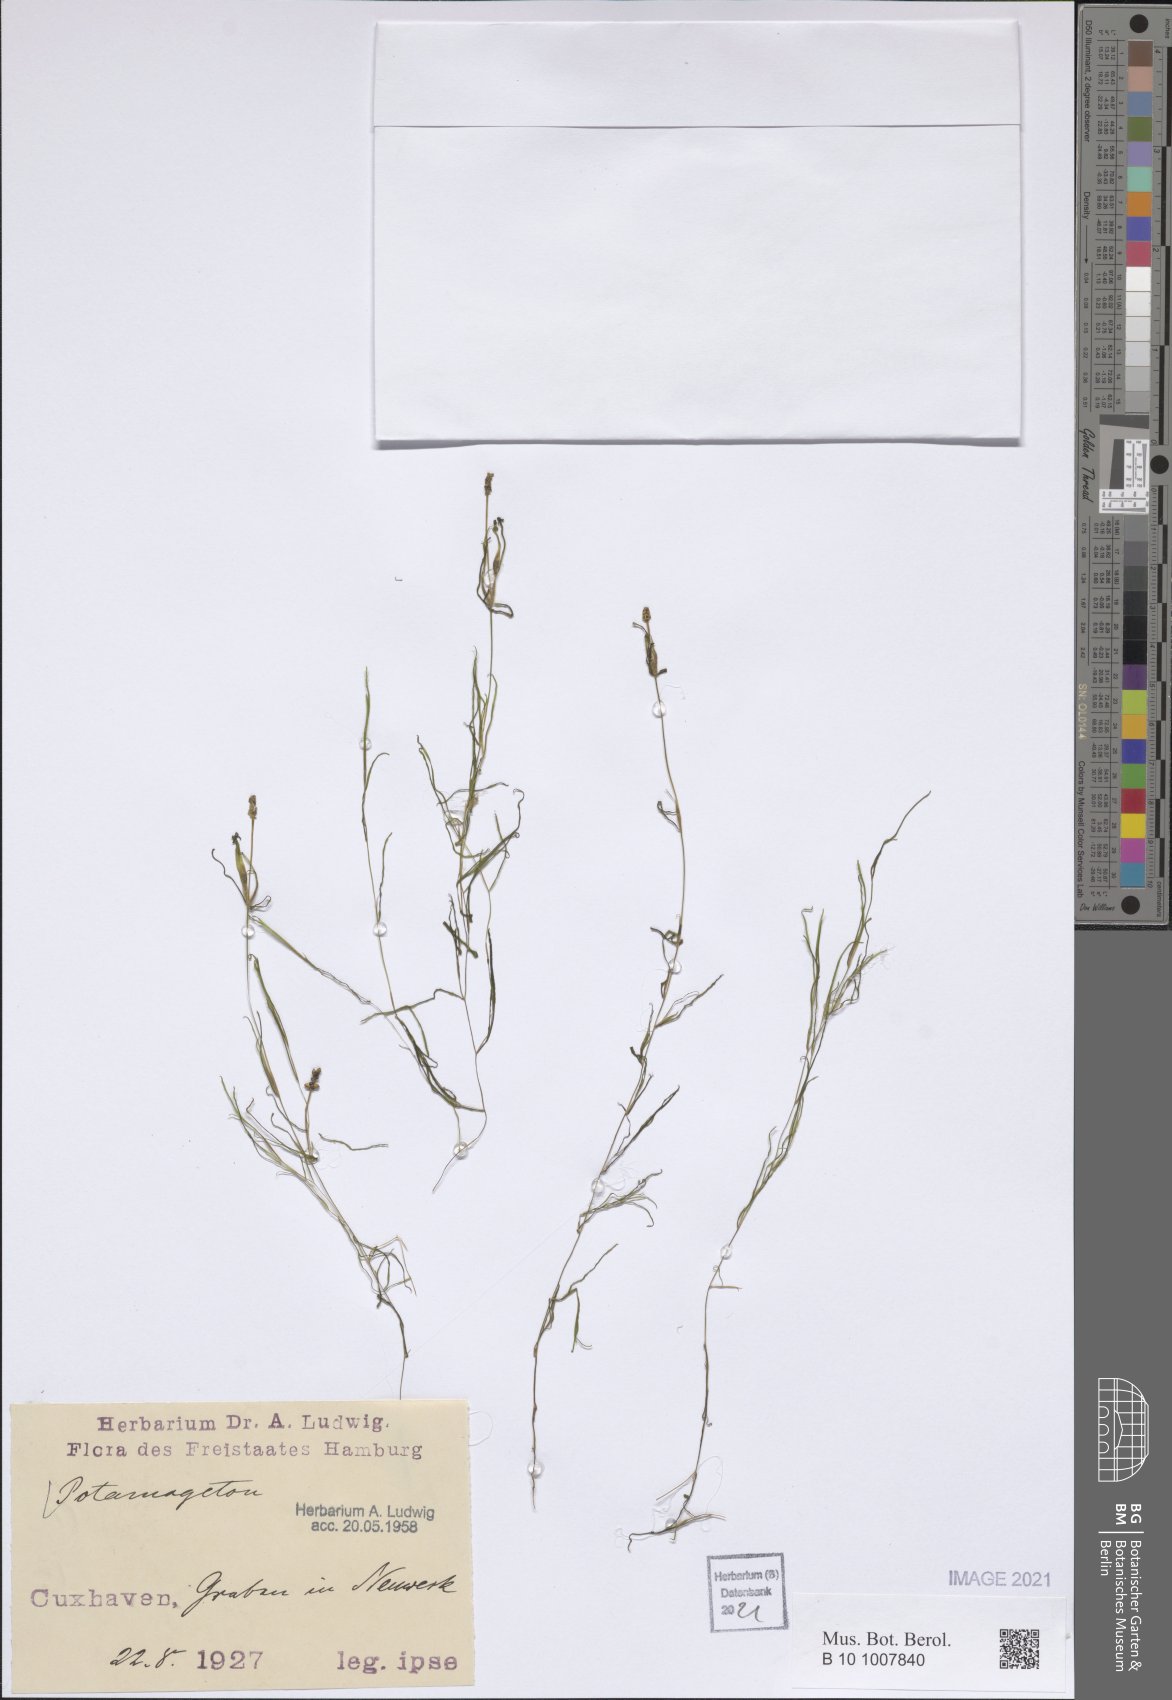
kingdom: Plantae
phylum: Tracheophyta
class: Liliopsida
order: Alismatales
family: Potamogetonaceae
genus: Potamogeton
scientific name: Potamogeton
